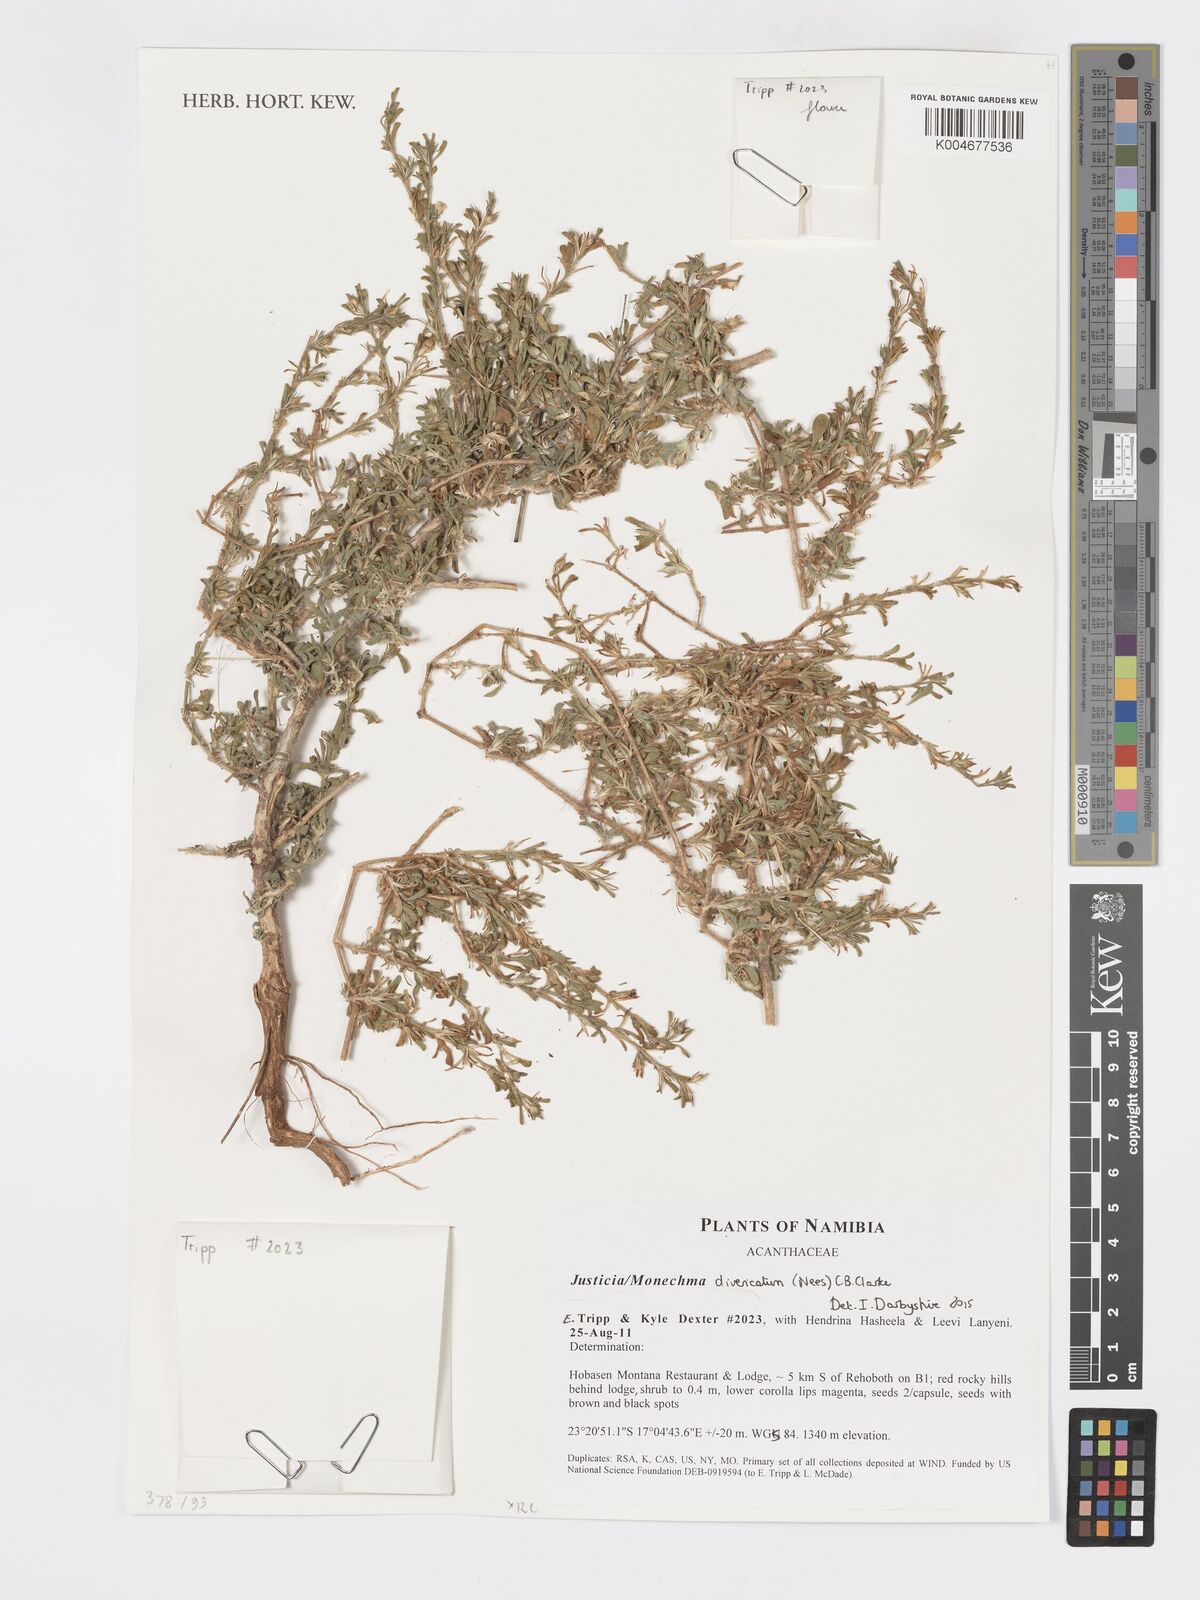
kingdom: Plantae
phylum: Tracheophyta
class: Magnoliopsida
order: Lamiales
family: Acanthaceae
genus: Pogonospermum
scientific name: Pogonospermum
